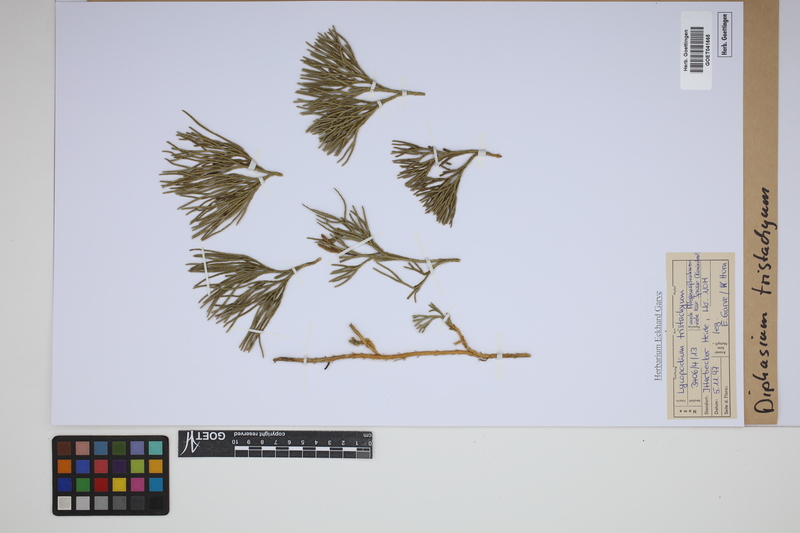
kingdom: Plantae
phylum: Tracheophyta
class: Lycopodiopsida
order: Lycopodiales
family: Lycopodiaceae
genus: Diphasiastrum
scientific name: Diphasiastrum tristachyum
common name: Blue ground-cedar
